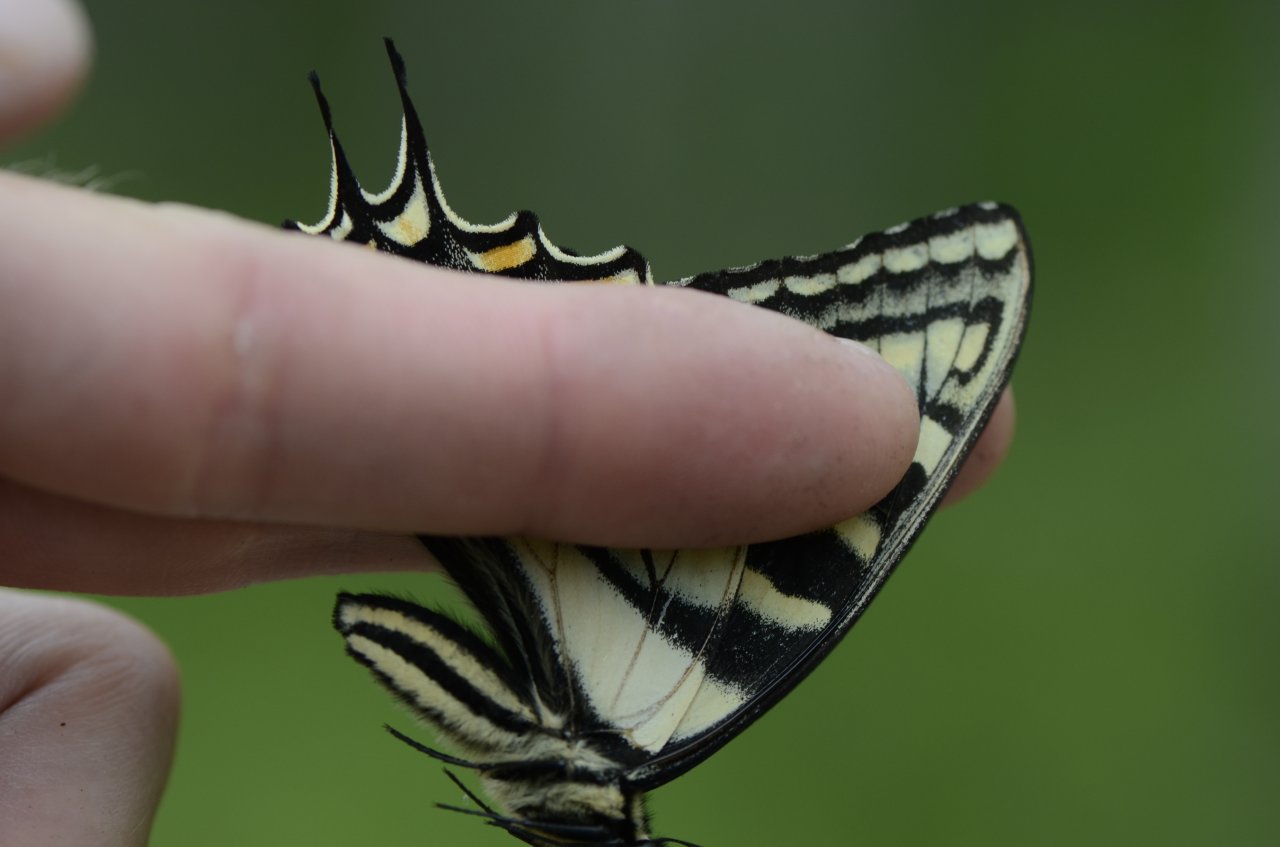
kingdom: Animalia
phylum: Arthropoda
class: Insecta
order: Lepidoptera
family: Papilionidae
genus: Pterourus
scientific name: Pterourus canadensis
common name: Canadian Tiger Swallowtail
